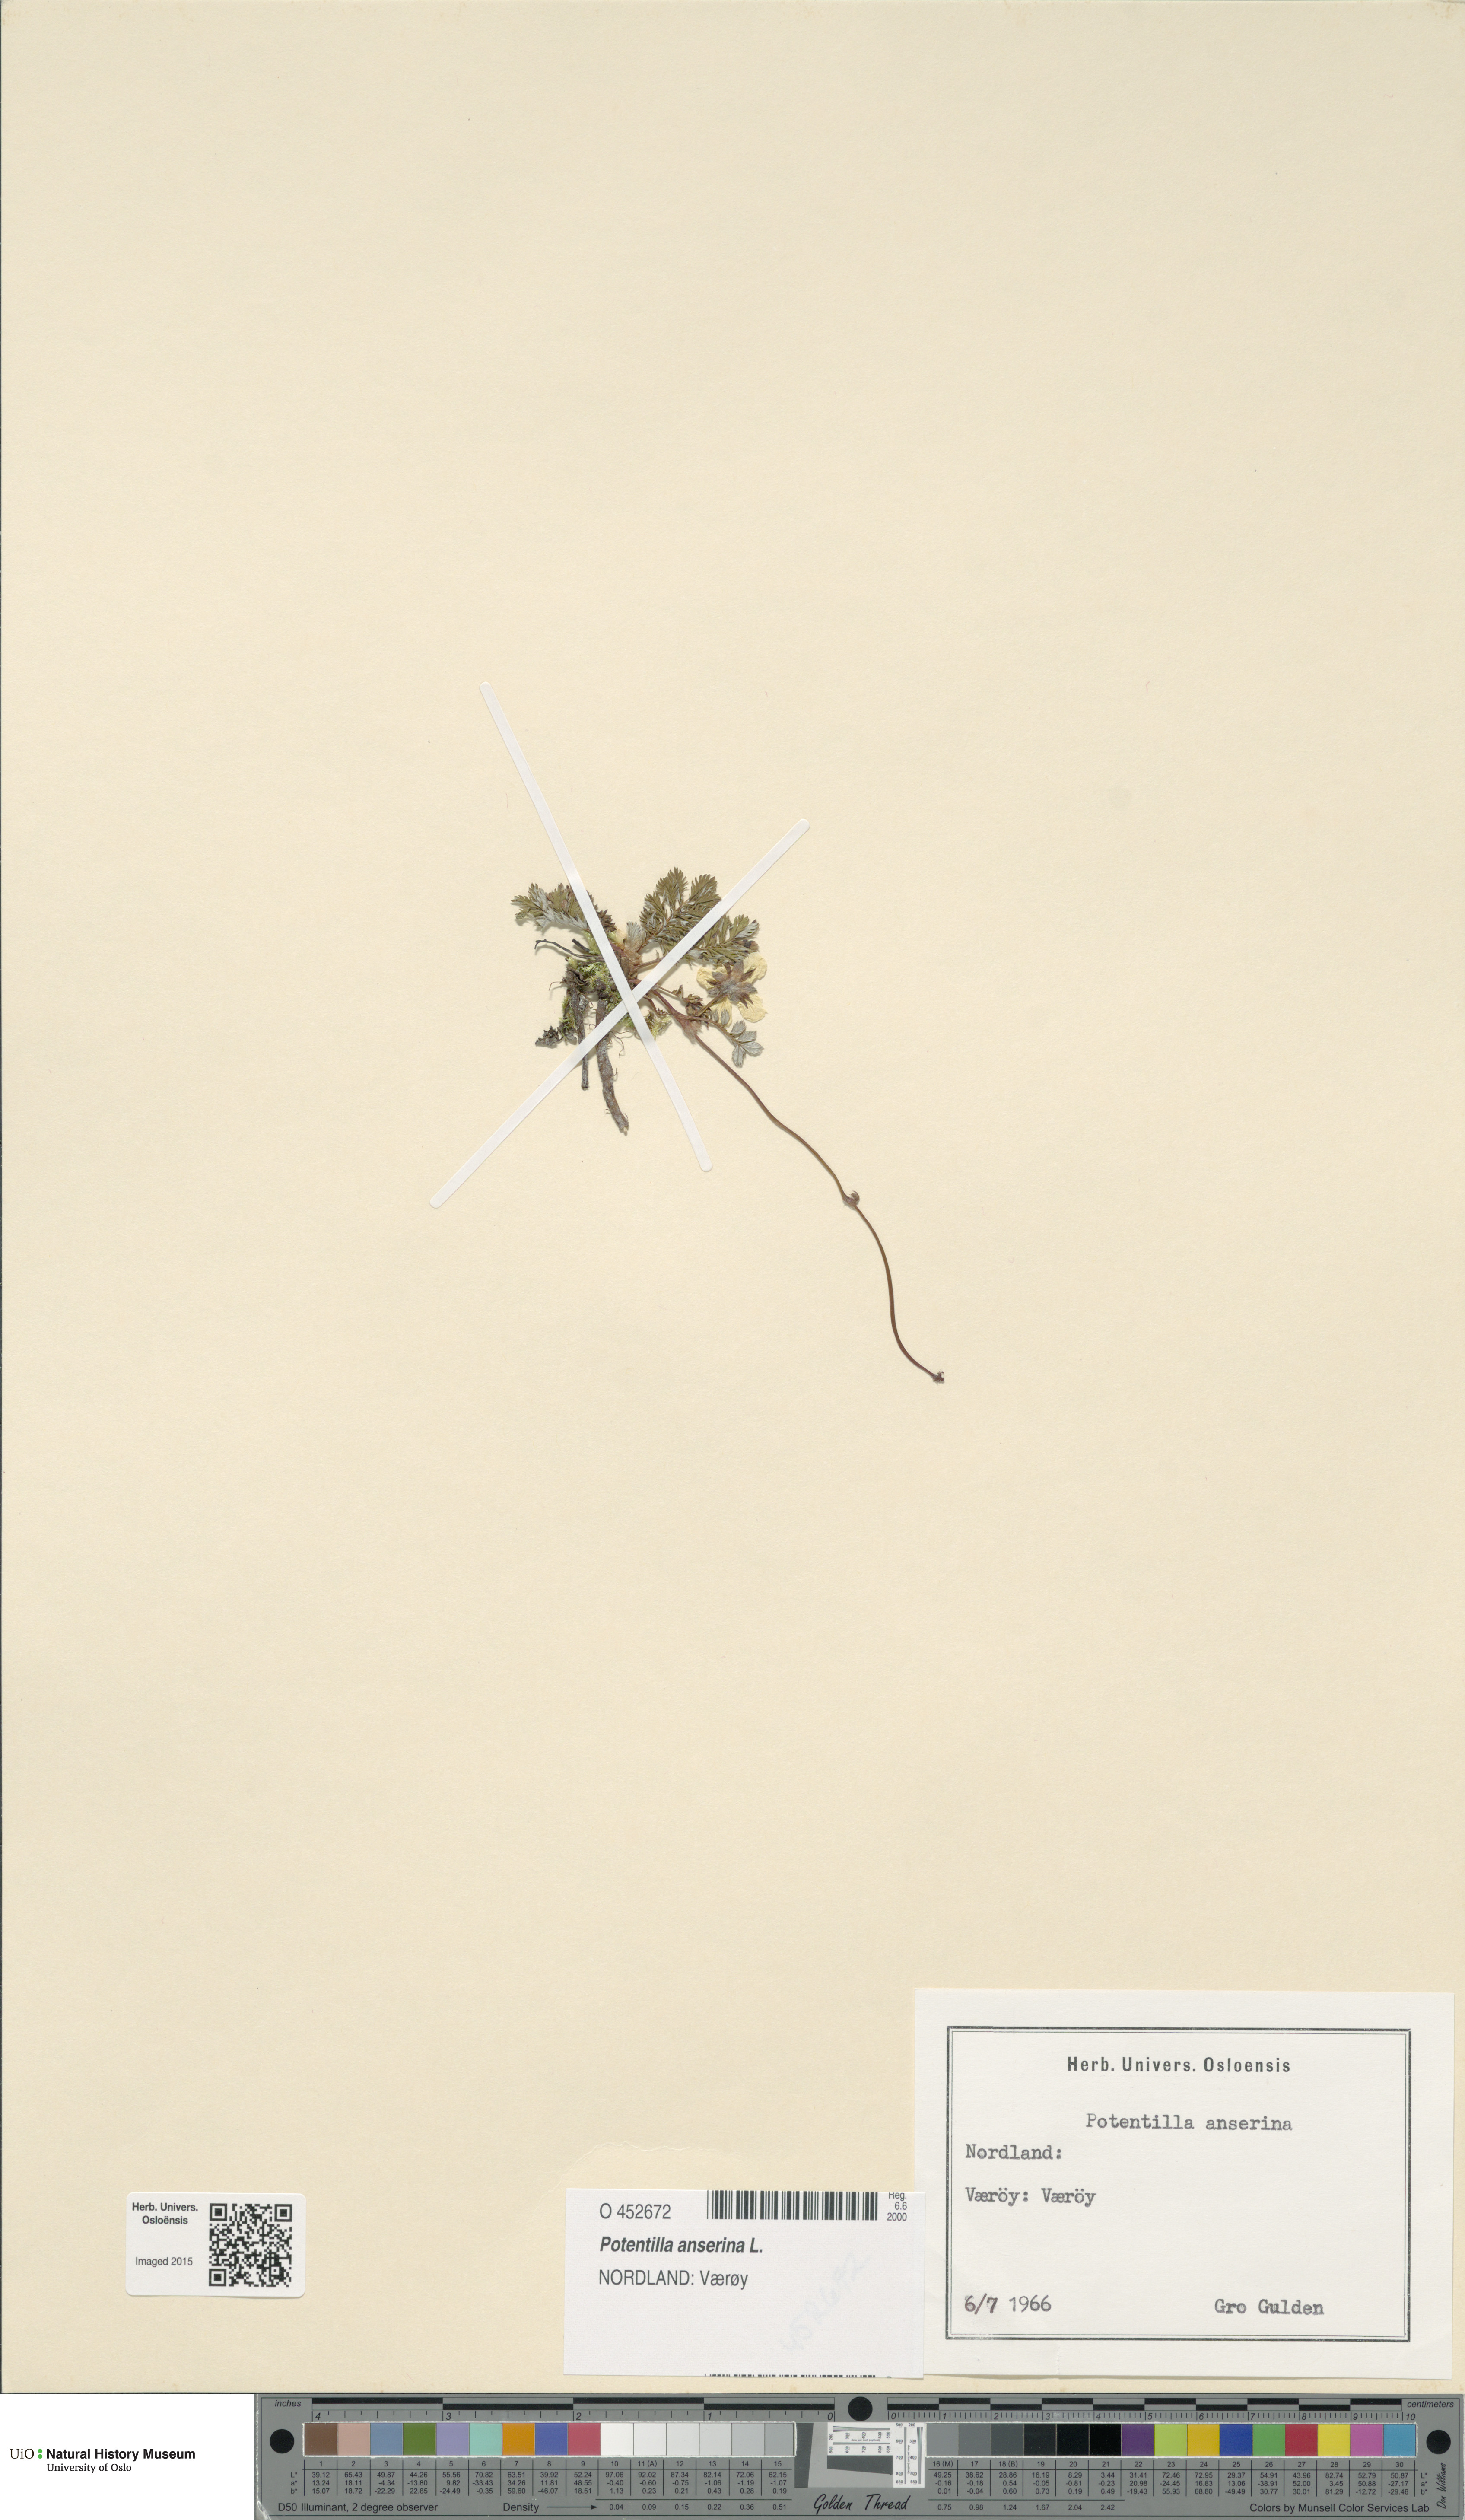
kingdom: Plantae
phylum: Tracheophyta
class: Magnoliopsida
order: Rosales
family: Rosaceae
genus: Argentina
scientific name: Argentina anserina
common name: Common silverweed
